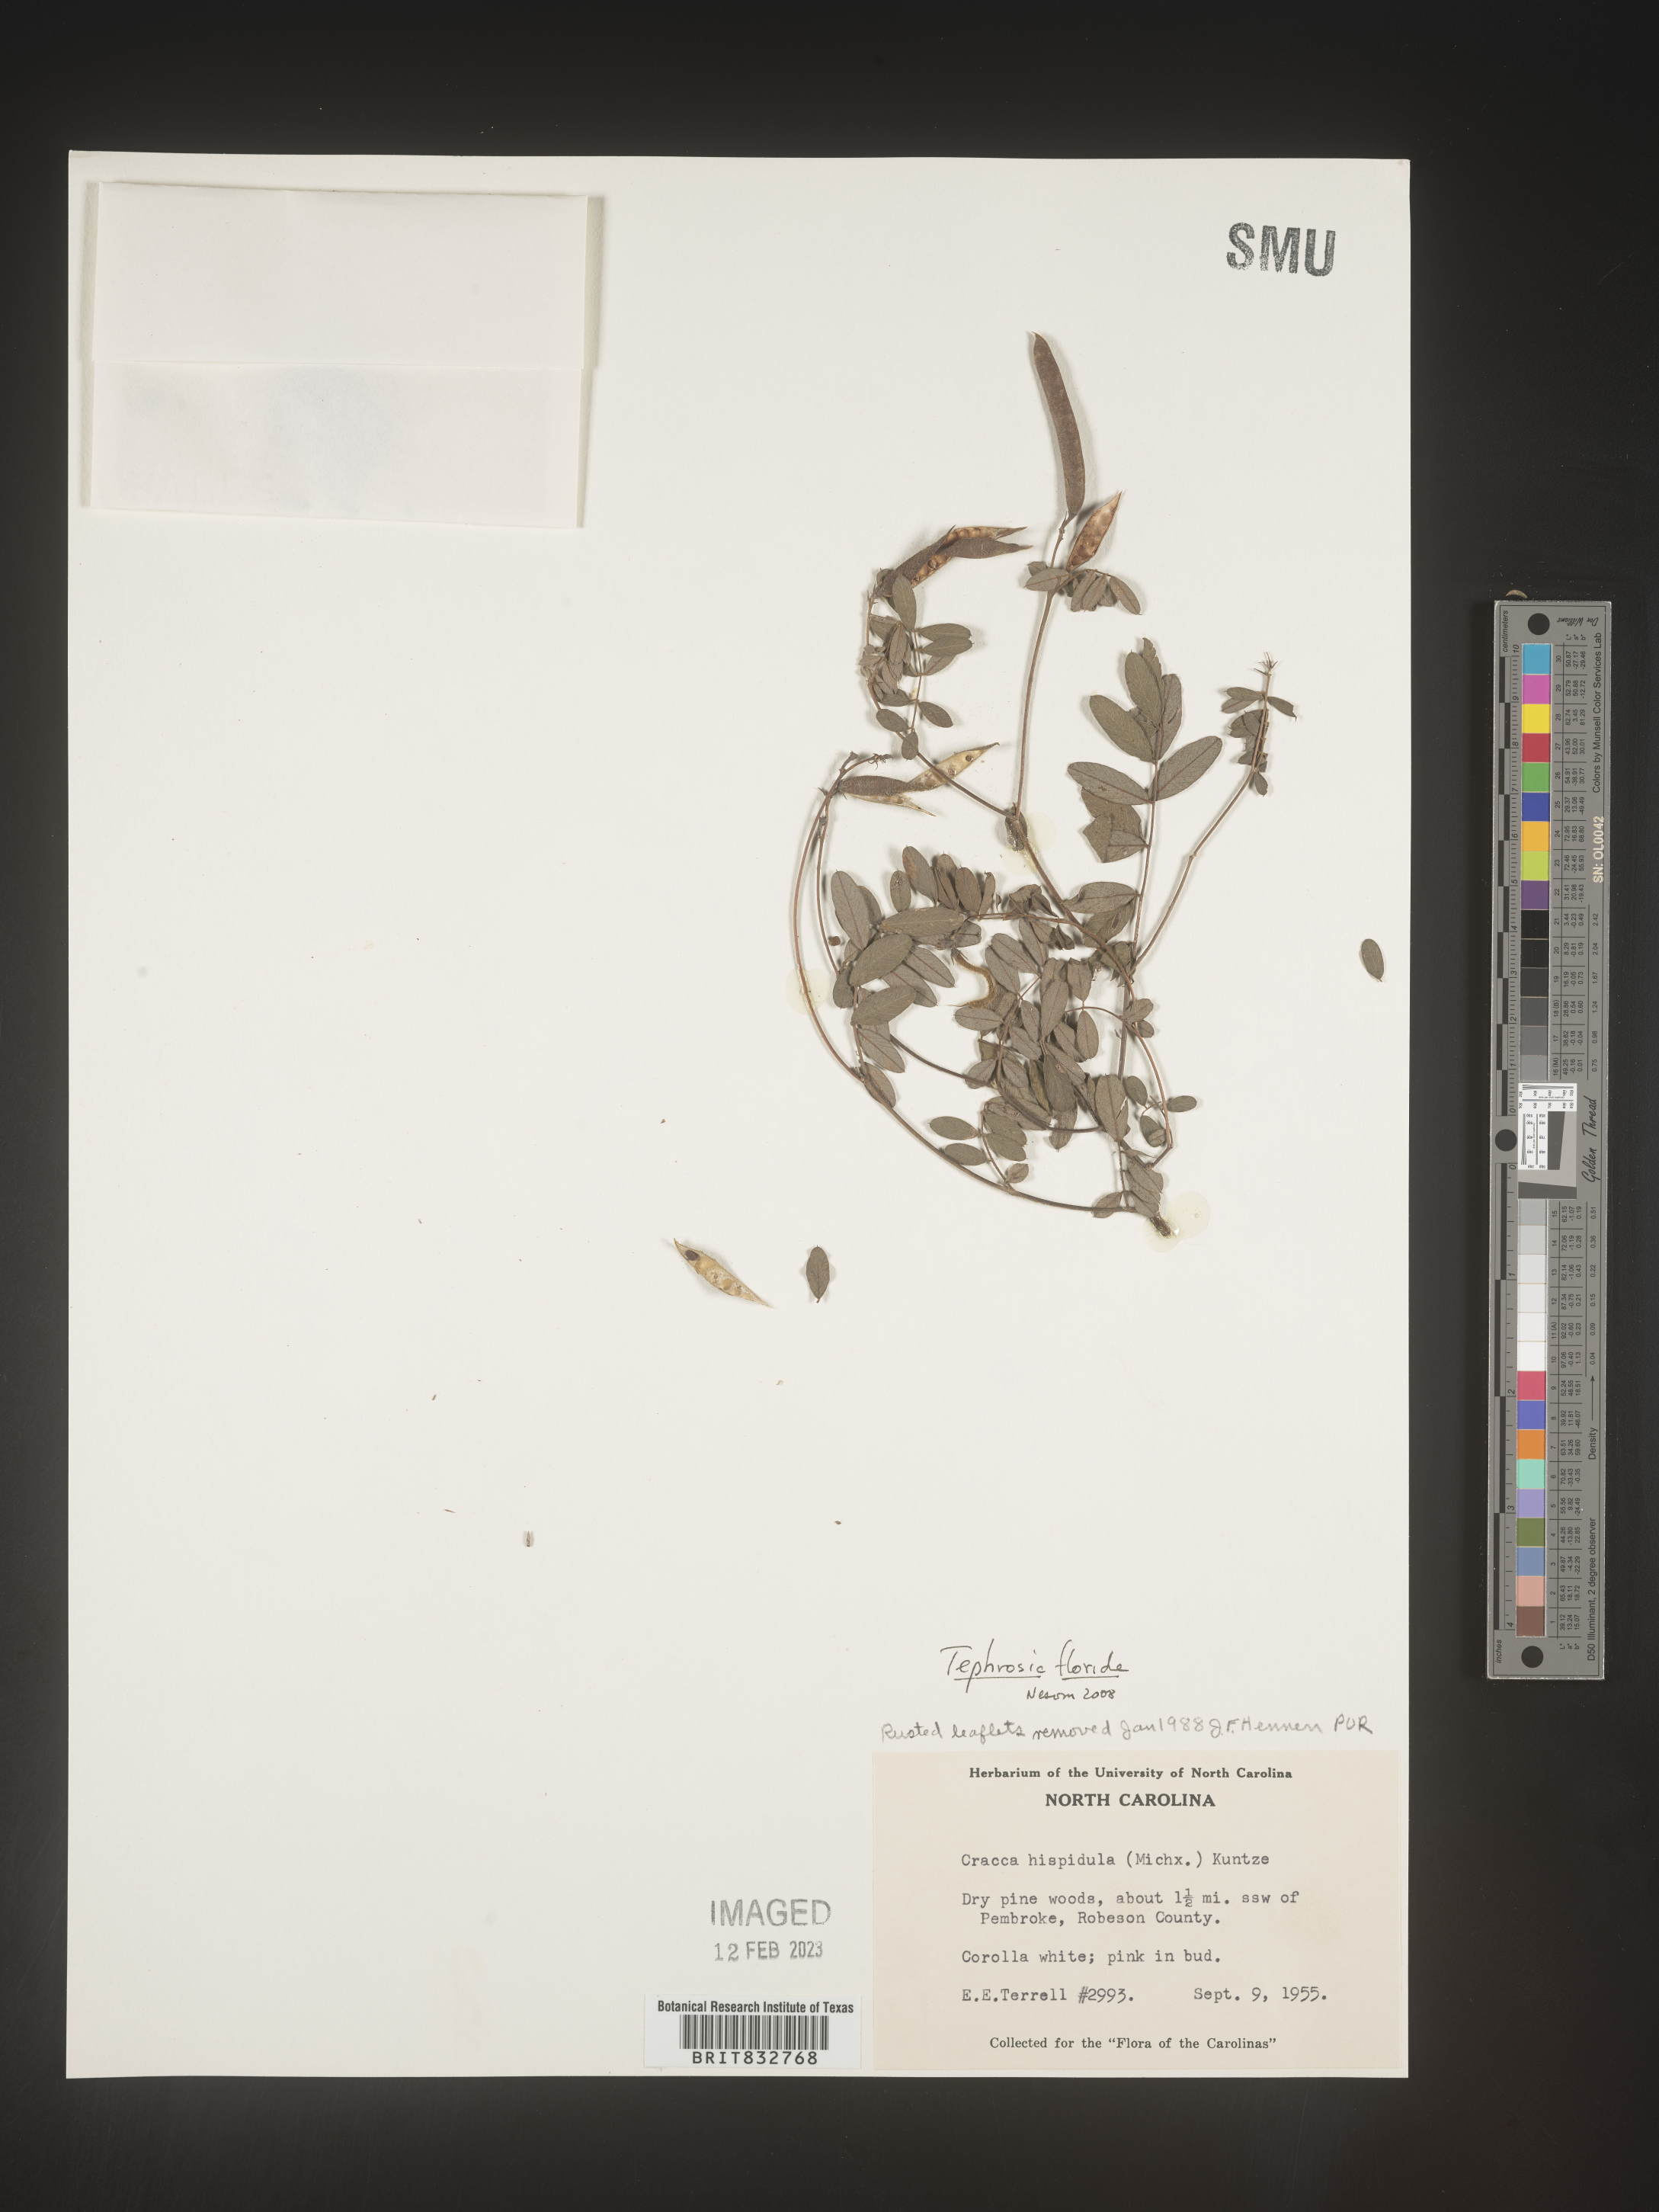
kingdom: Plantae
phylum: Tracheophyta
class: Magnoliopsida
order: Fabales
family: Fabaceae
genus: Tephrosia
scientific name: Tephrosia florida
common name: Florida hoary-pea
